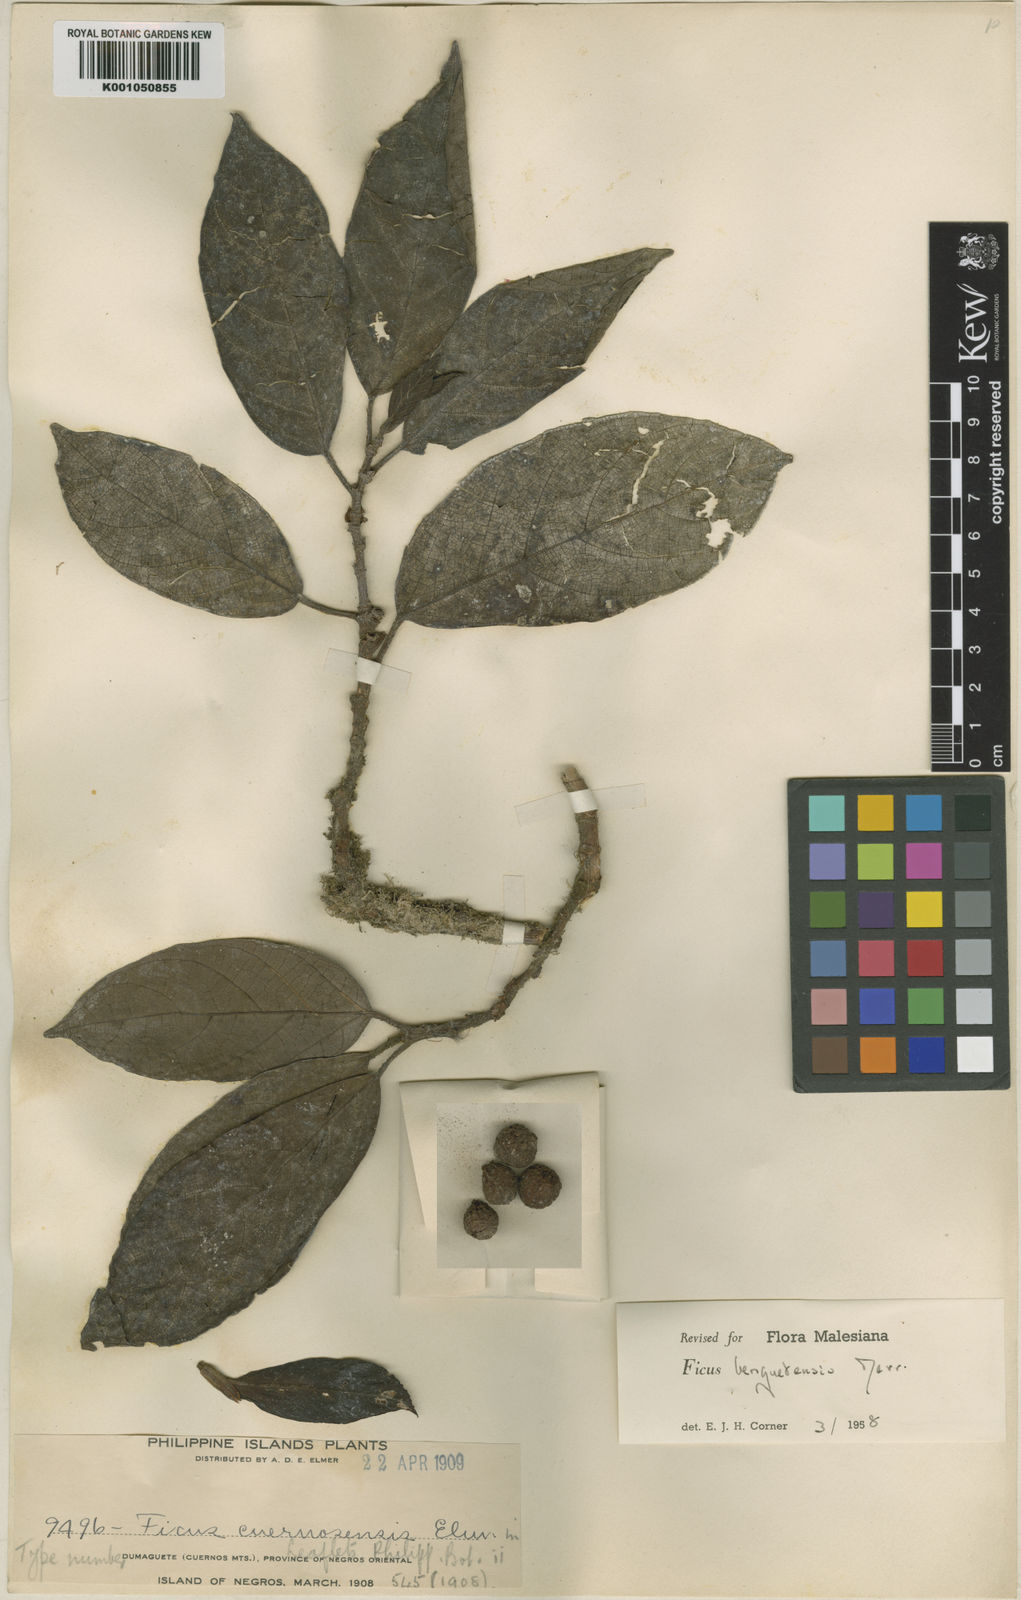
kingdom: Plantae
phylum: Tracheophyta
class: Magnoliopsida
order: Rosales
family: Moraceae
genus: Ficus
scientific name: Ficus benguetensis
